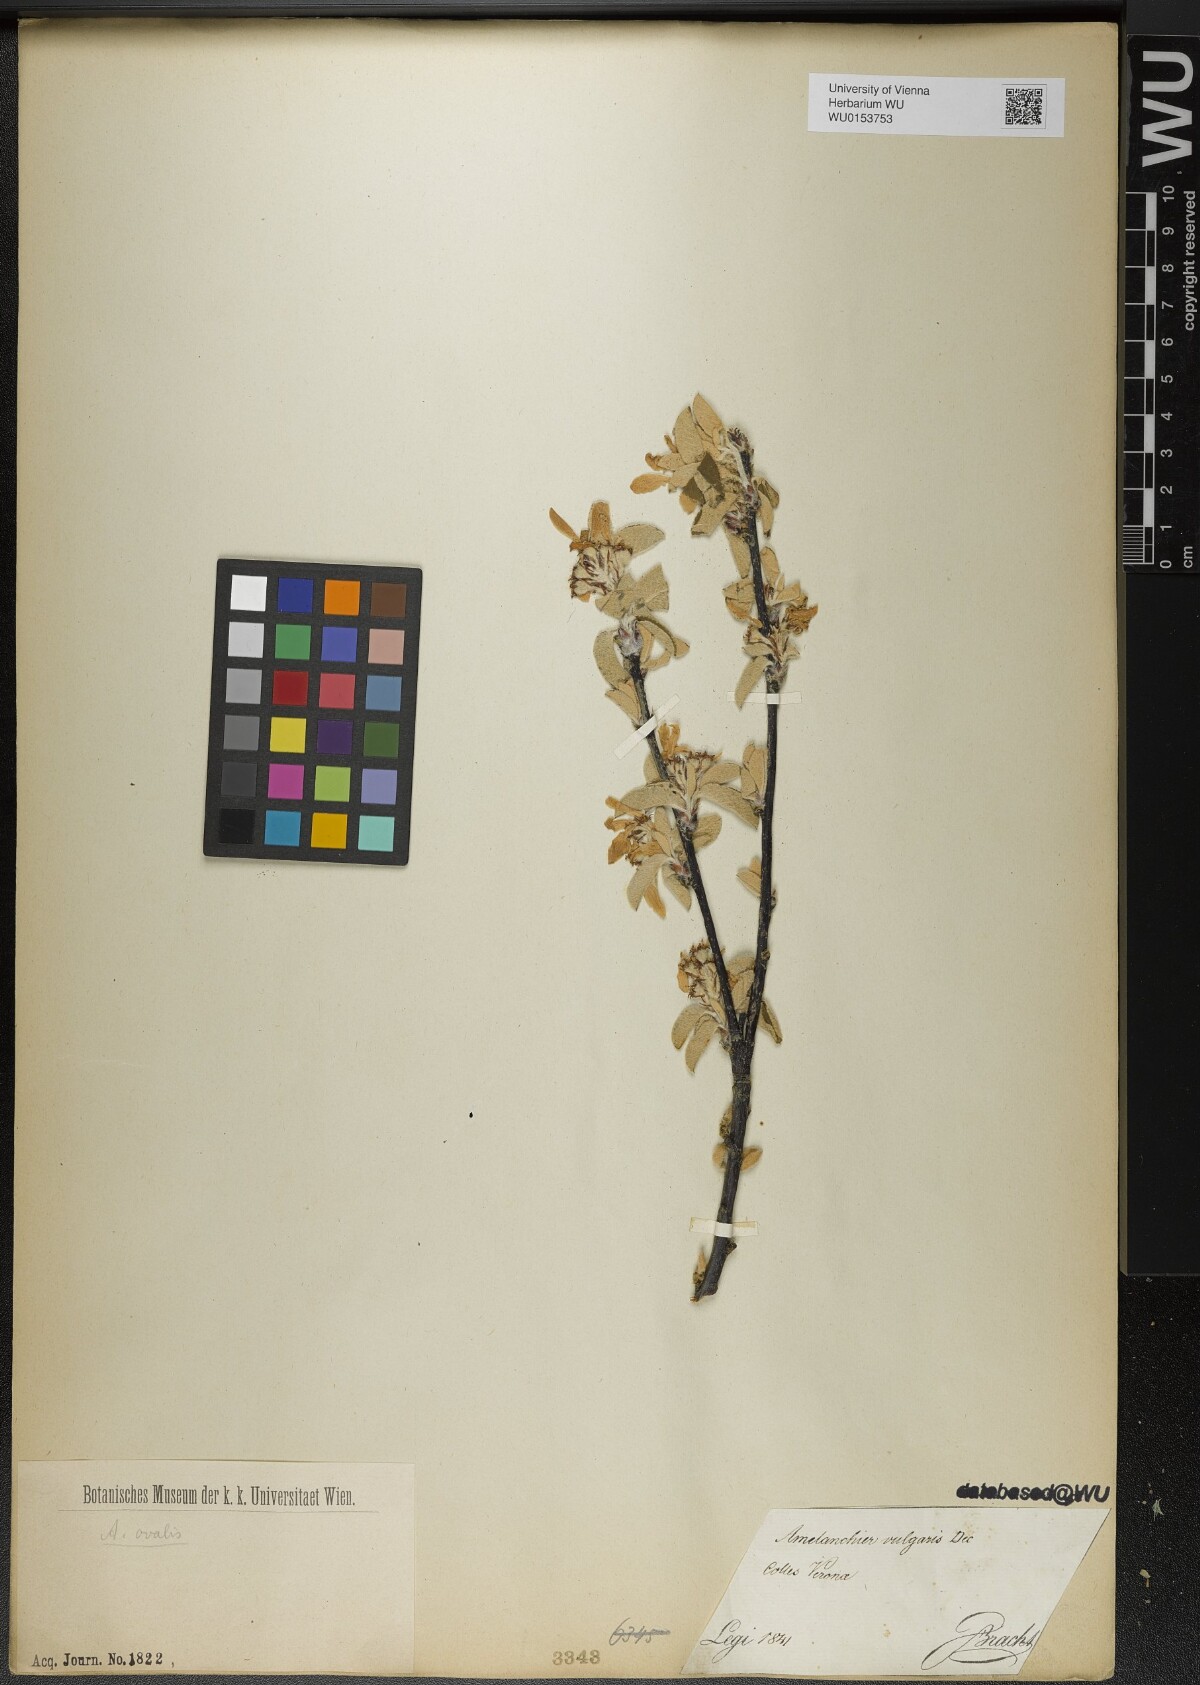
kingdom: Plantae
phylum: Tracheophyta
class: Magnoliopsida
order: Rosales
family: Rosaceae
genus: Amelanchier
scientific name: Amelanchier ovalis
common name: Serviceberry
